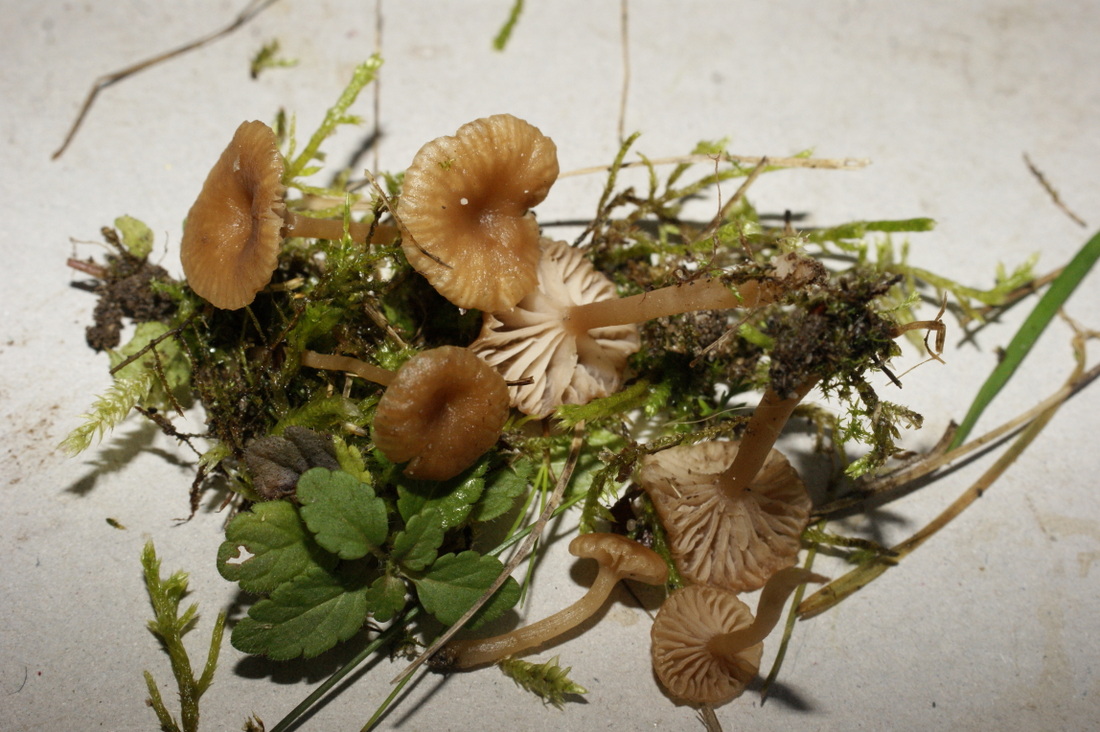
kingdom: Fungi
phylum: Basidiomycota
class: Agaricomycetes
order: Agaricales
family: Tricholomataceae
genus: Omphalina
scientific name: Omphalina pyxidata
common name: rødbrun navlehat
